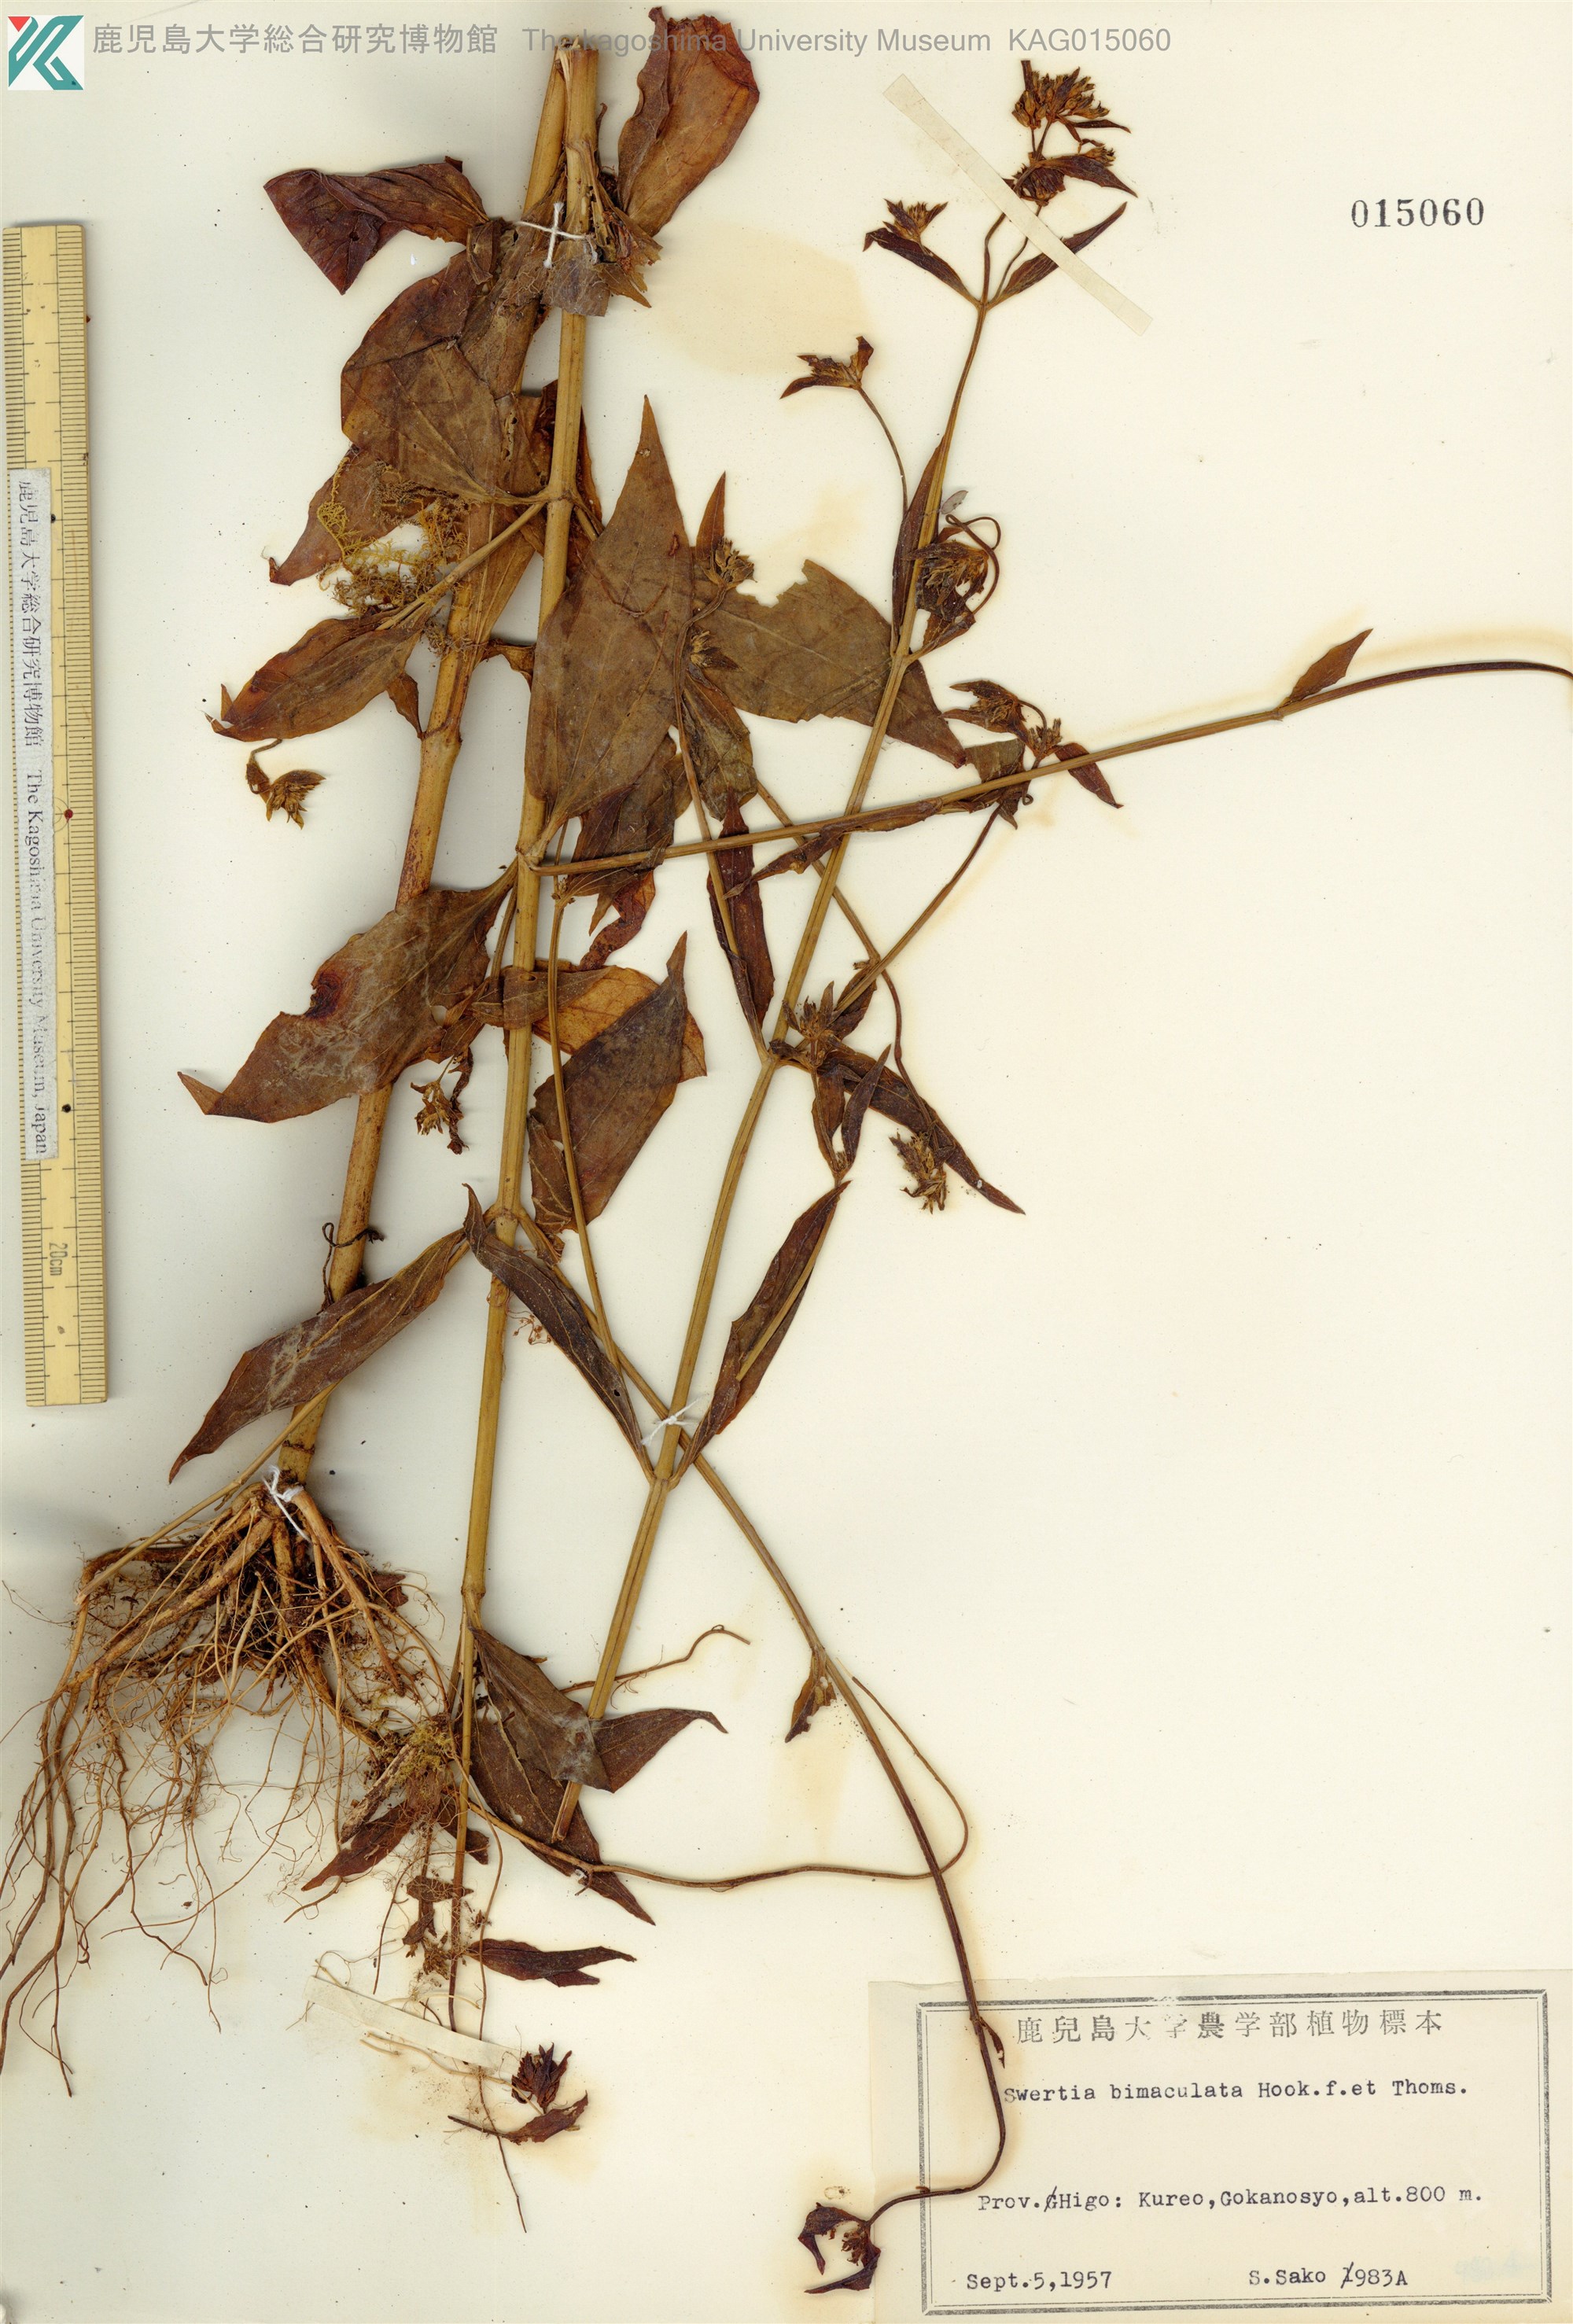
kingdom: Plantae
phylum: Tracheophyta
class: Magnoliopsida
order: Gentianales
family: Gentianaceae
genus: Swertia
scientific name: Swertia bimaculata
